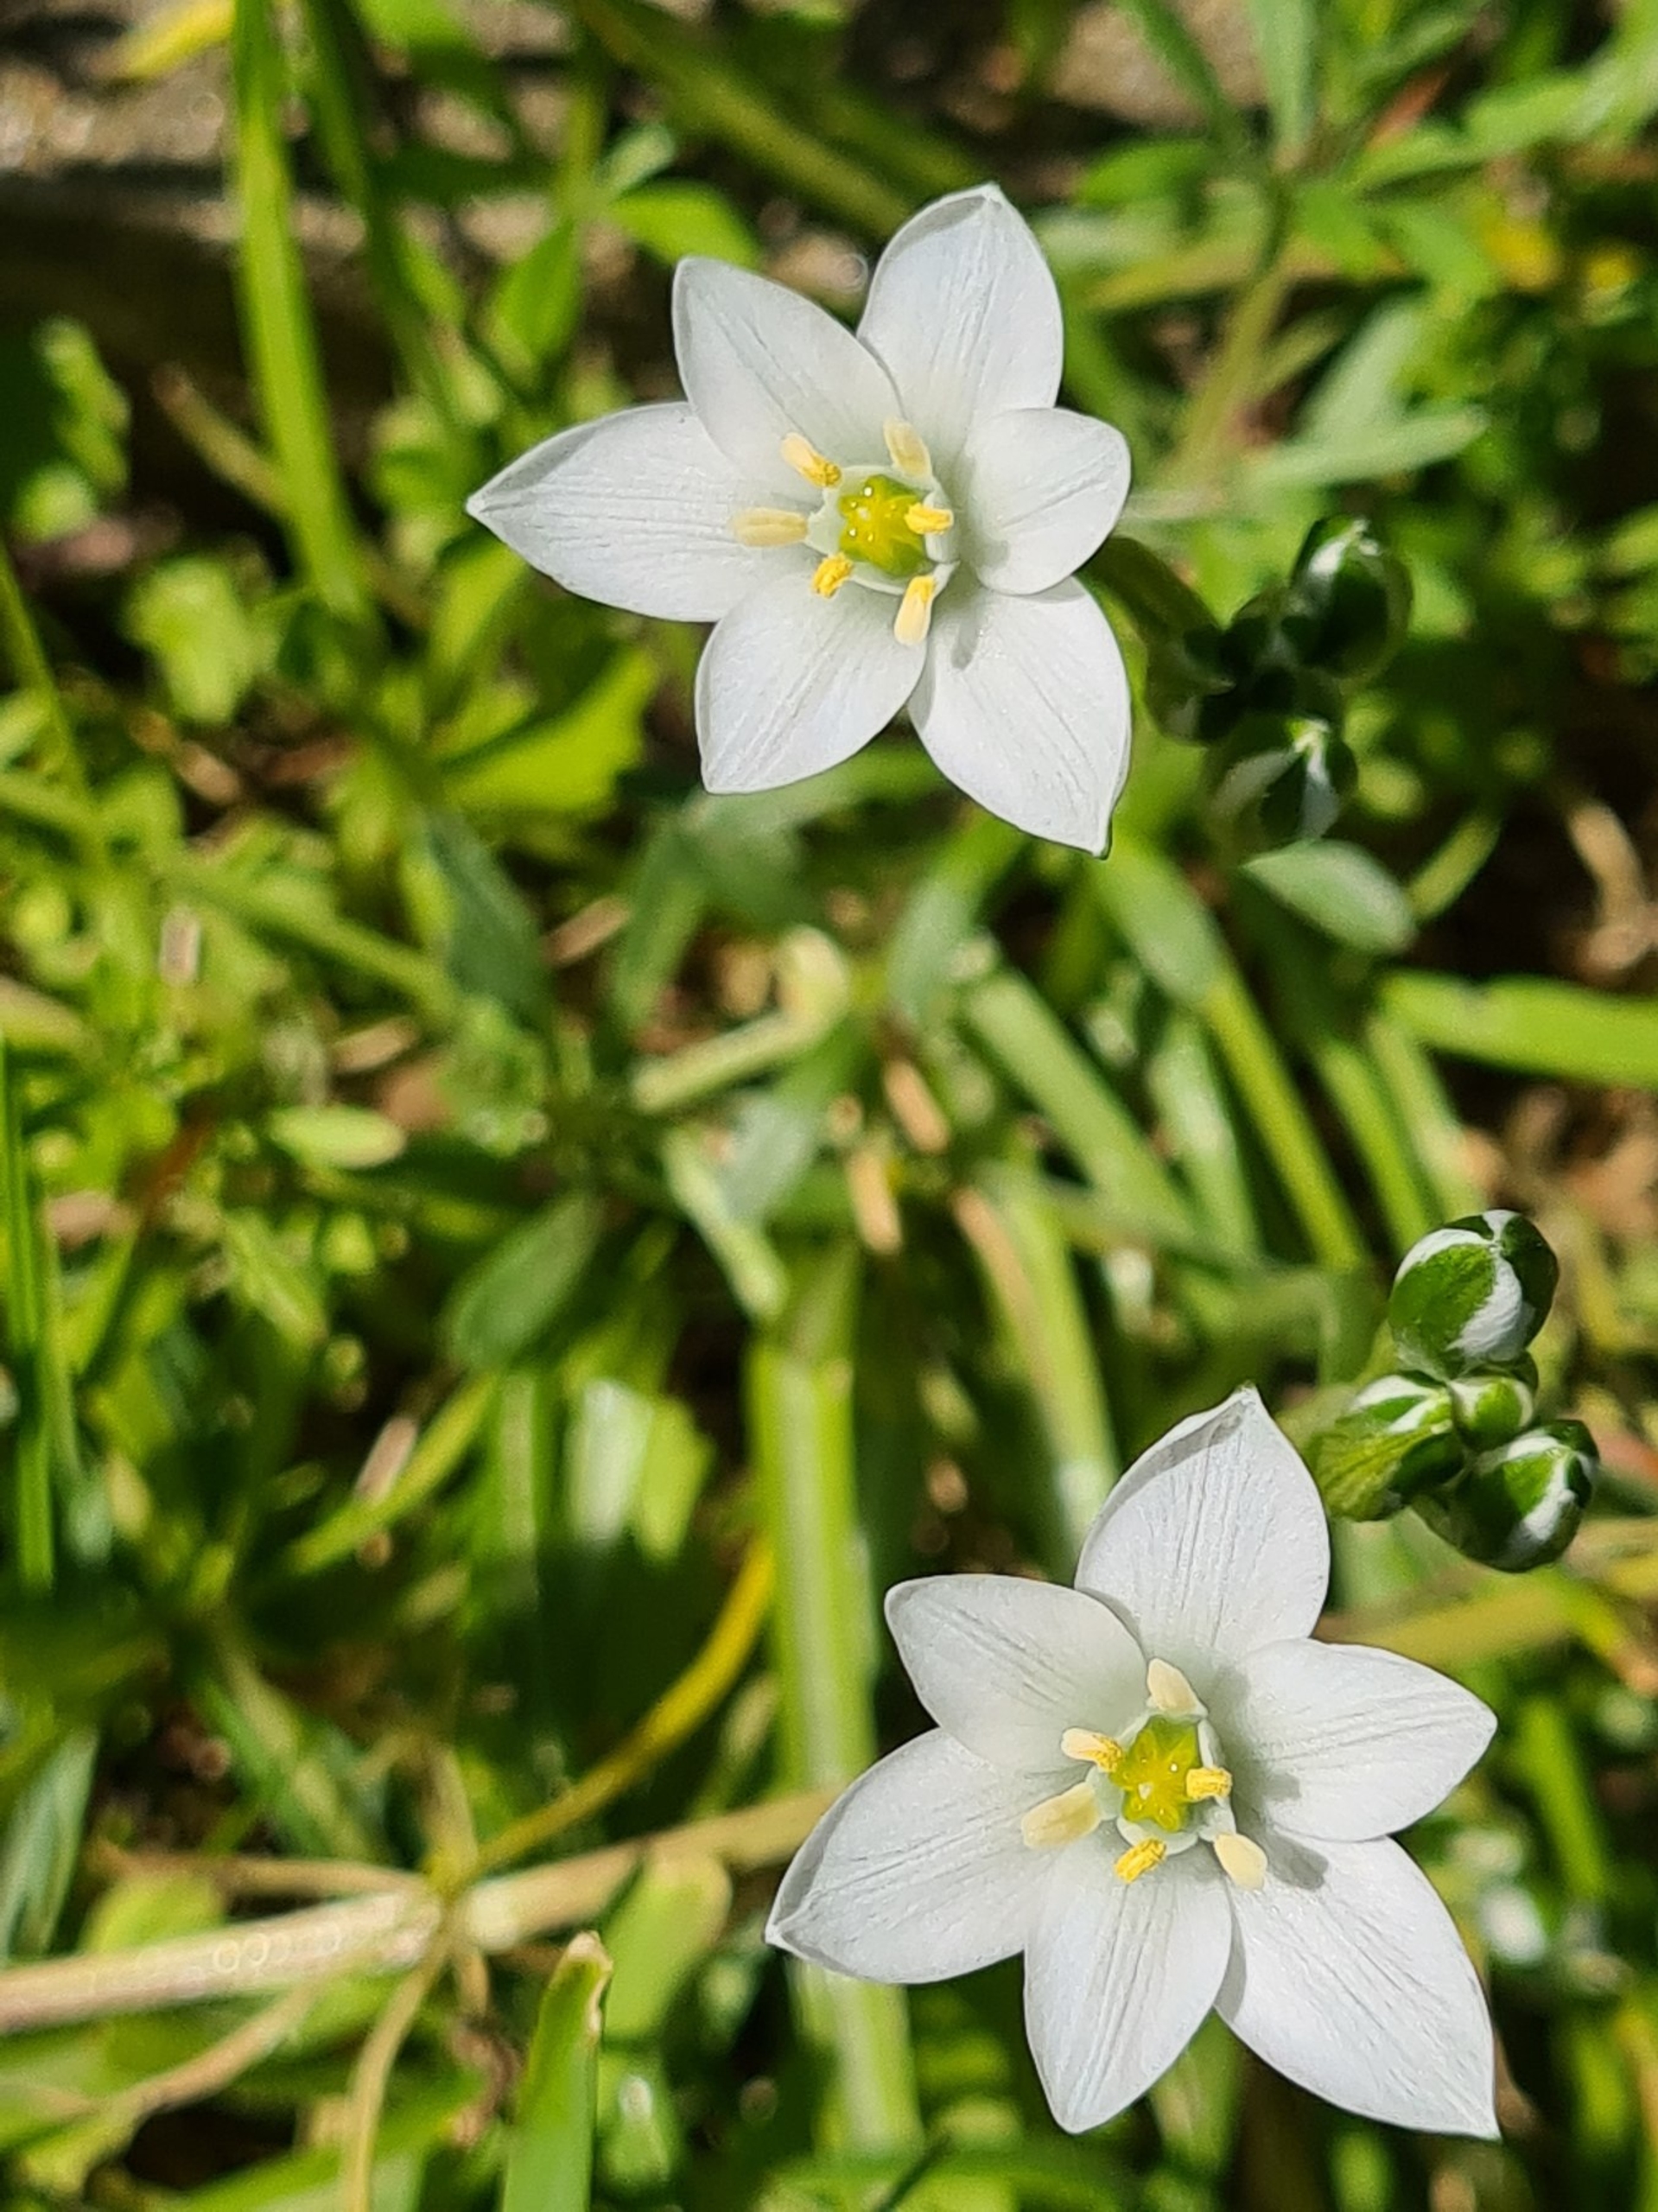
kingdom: Plantae
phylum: Tracheophyta
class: Liliopsida
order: Asparagales
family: Asparagaceae
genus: Ornithogalum
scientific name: Ornithogalum umbellatum
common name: Kost-fuglemælk
